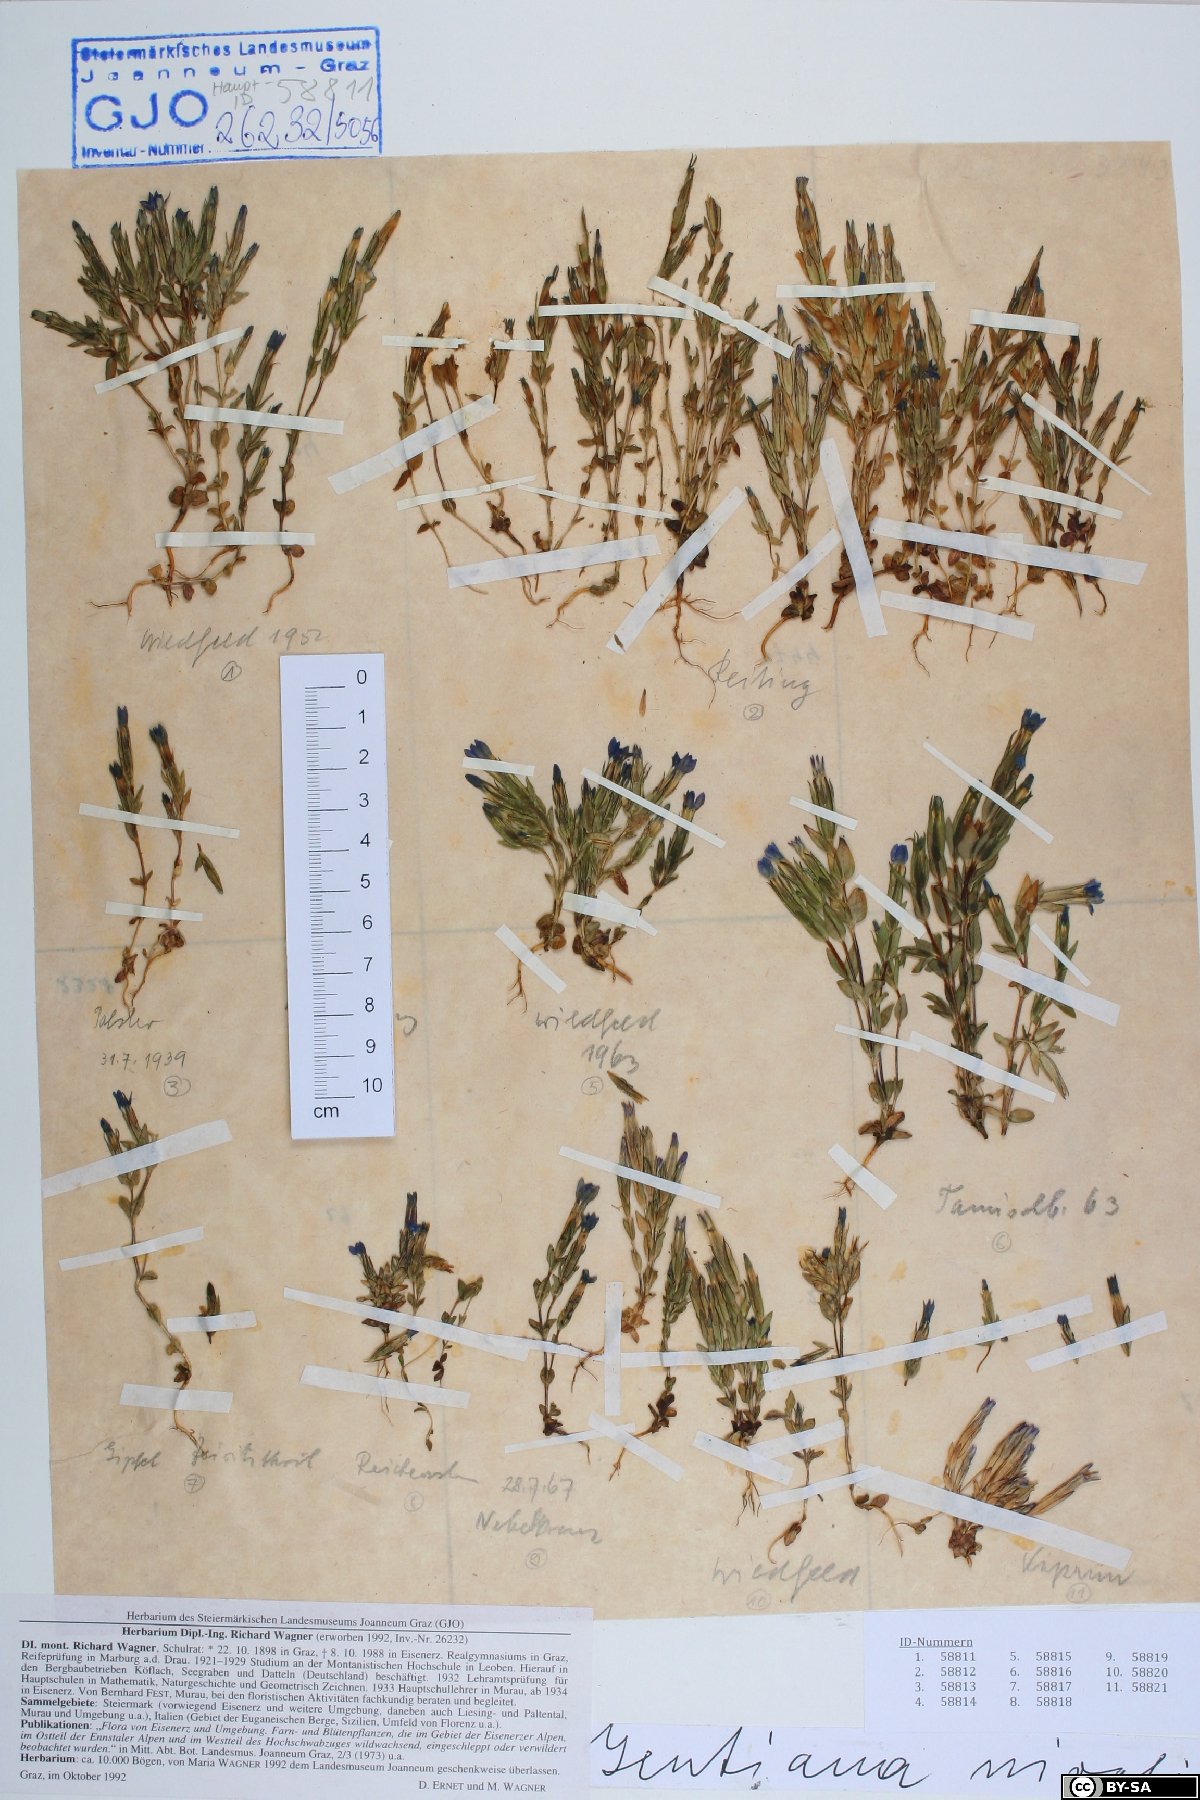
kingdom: Plantae
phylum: Tracheophyta
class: Magnoliopsida
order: Gentianales
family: Gentianaceae
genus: Gentiana
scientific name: Gentiana nivalis
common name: Alpine gentian
